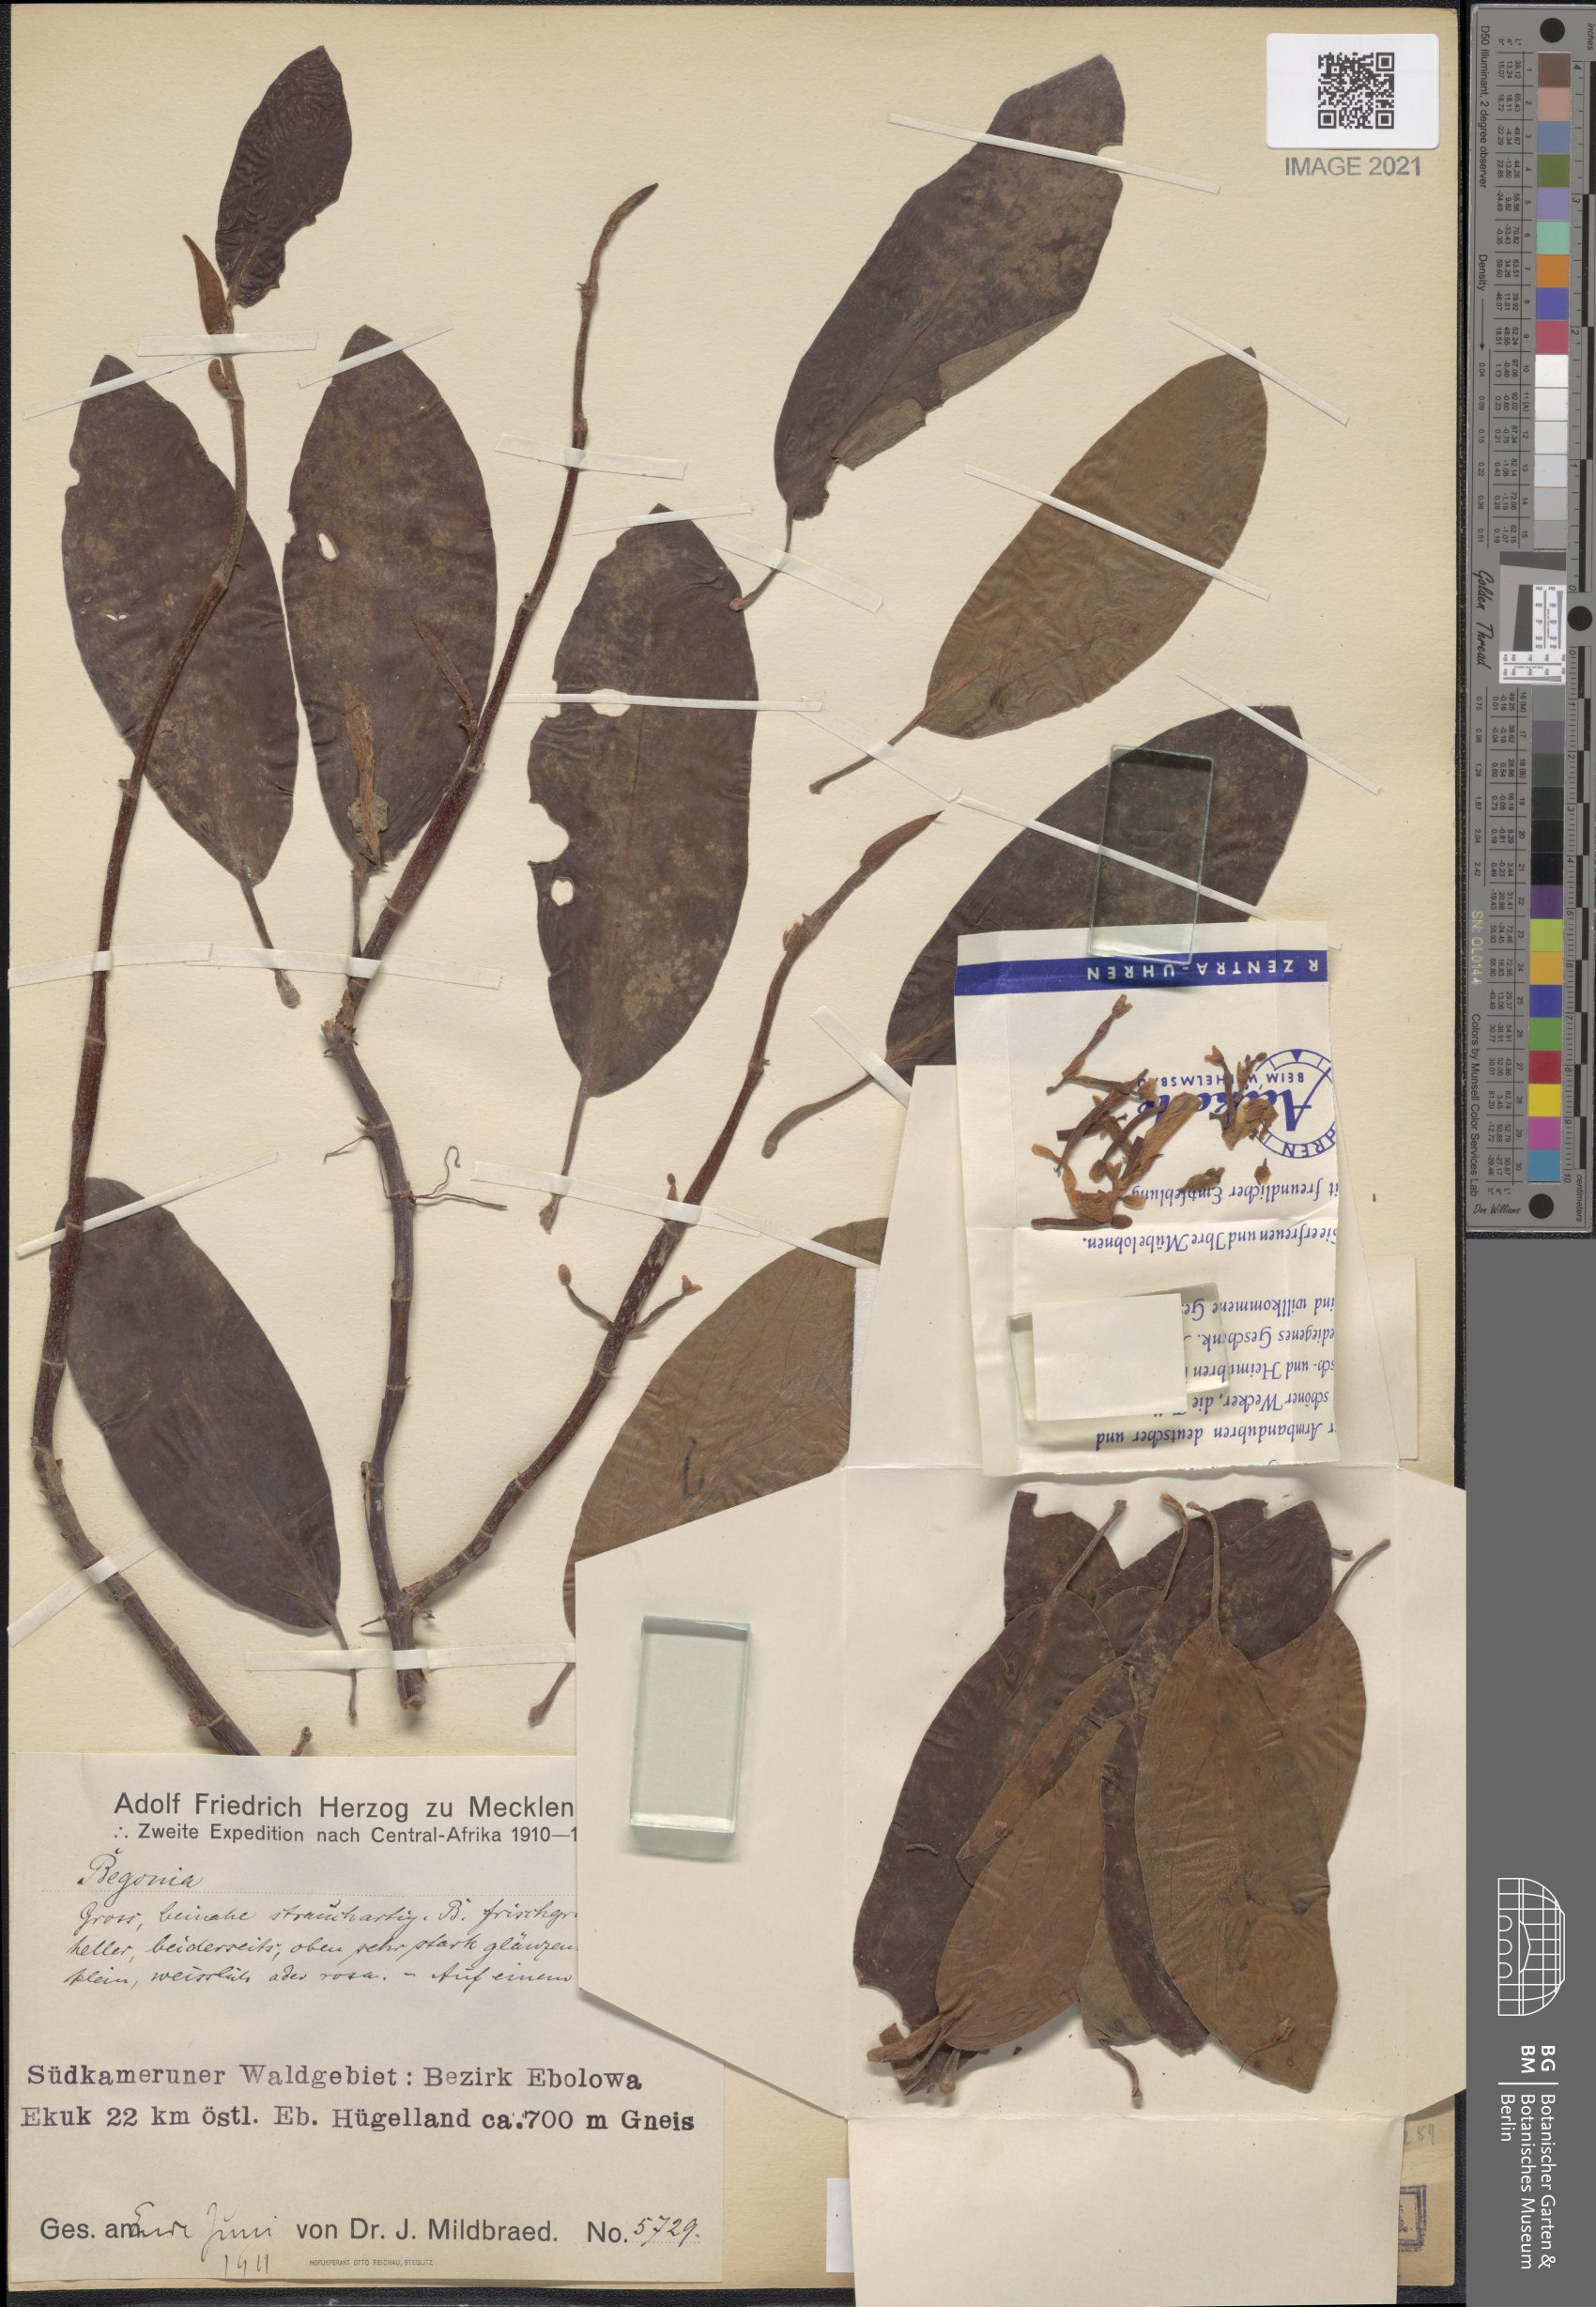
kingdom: Plantae
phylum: Tracheophyta
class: Magnoliopsida
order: Cucurbitales
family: Begoniaceae
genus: Begonia
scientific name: Begonia ebolowensis
